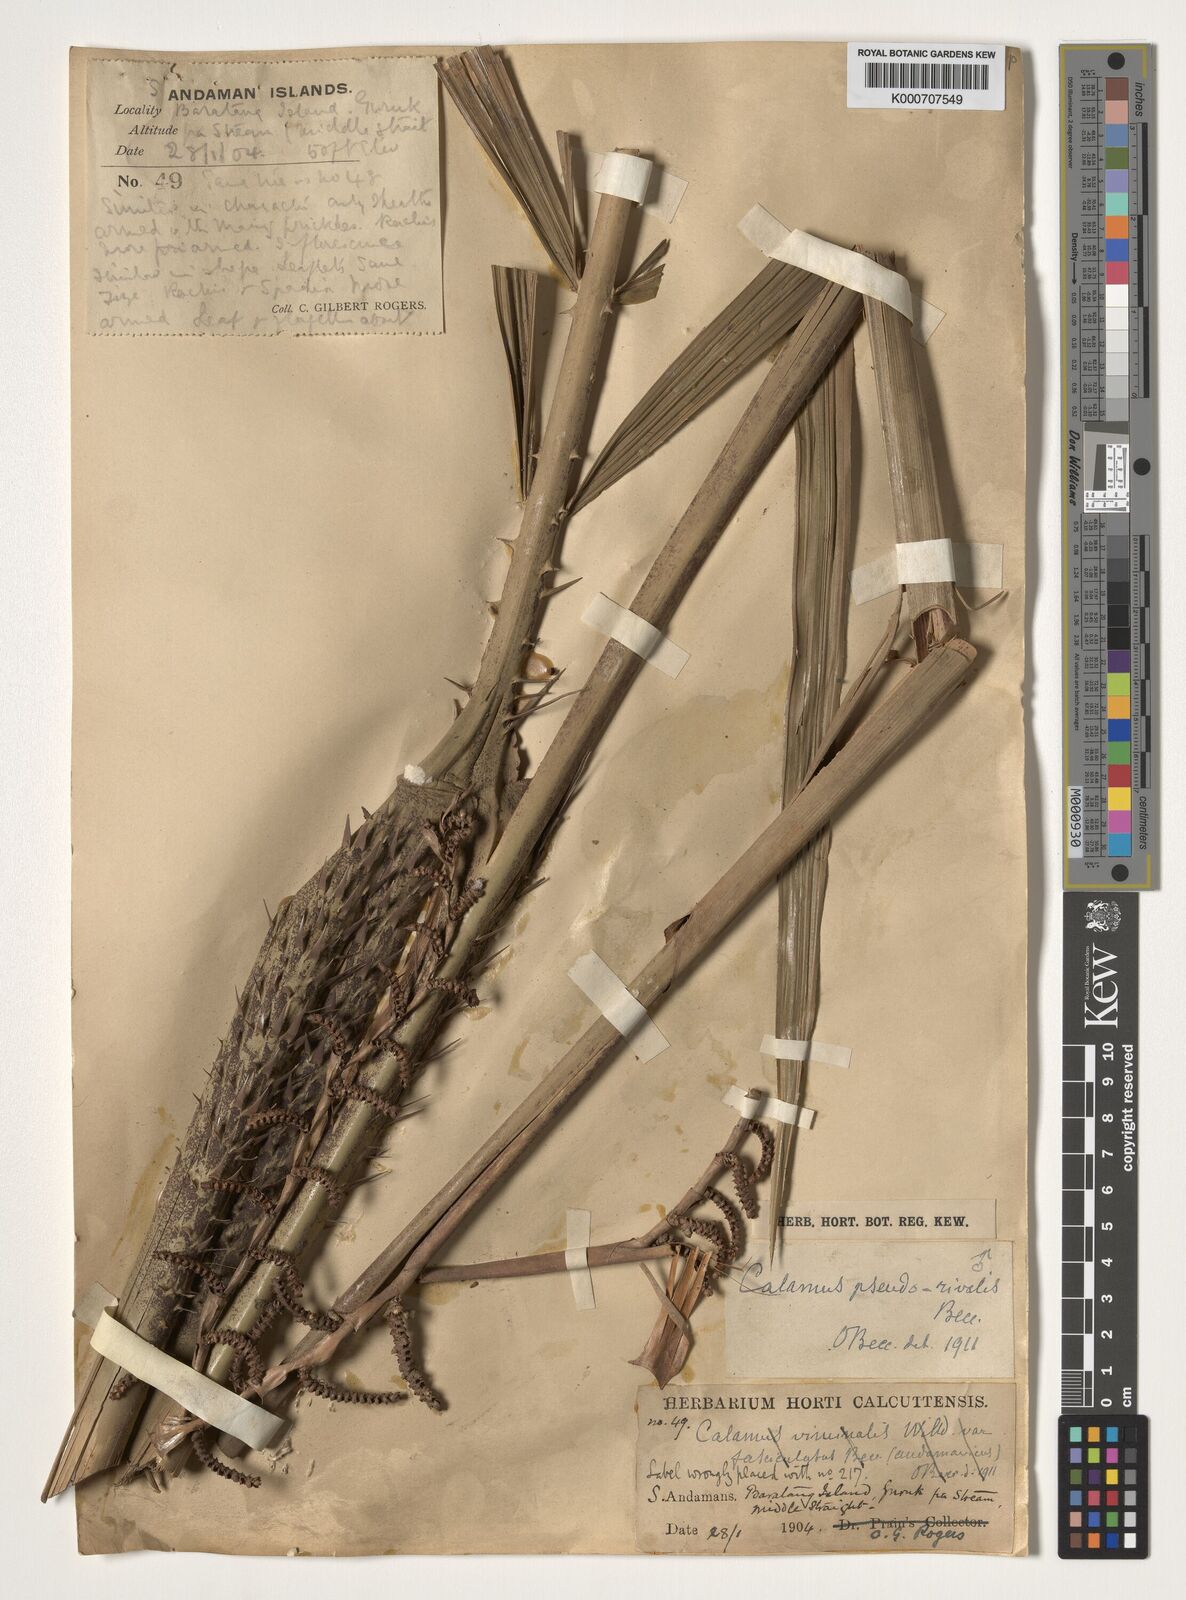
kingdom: Plantae
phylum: Tracheophyta
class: Liliopsida
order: Arecales
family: Arecaceae
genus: Calamus
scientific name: Calamus nicobaricus
